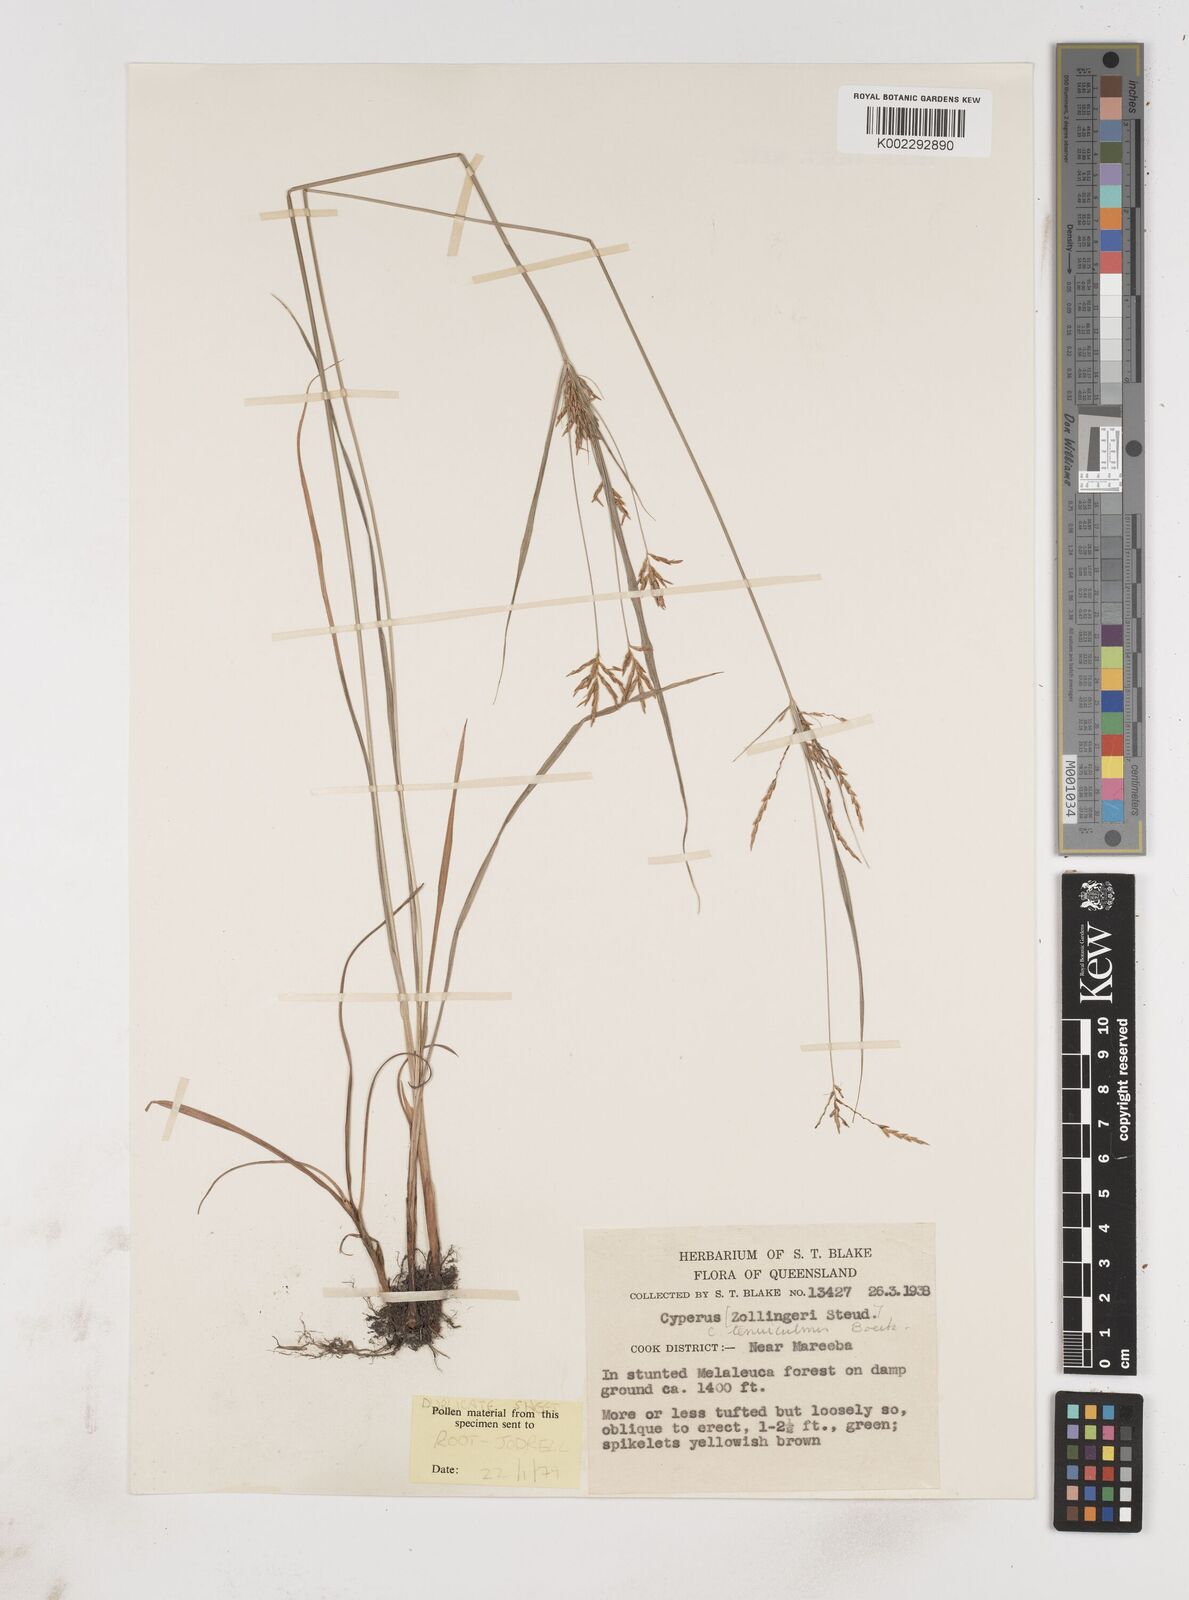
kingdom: Plantae
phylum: Tracheophyta
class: Liliopsida
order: Poales
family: Cyperaceae
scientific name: Cyperaceae
